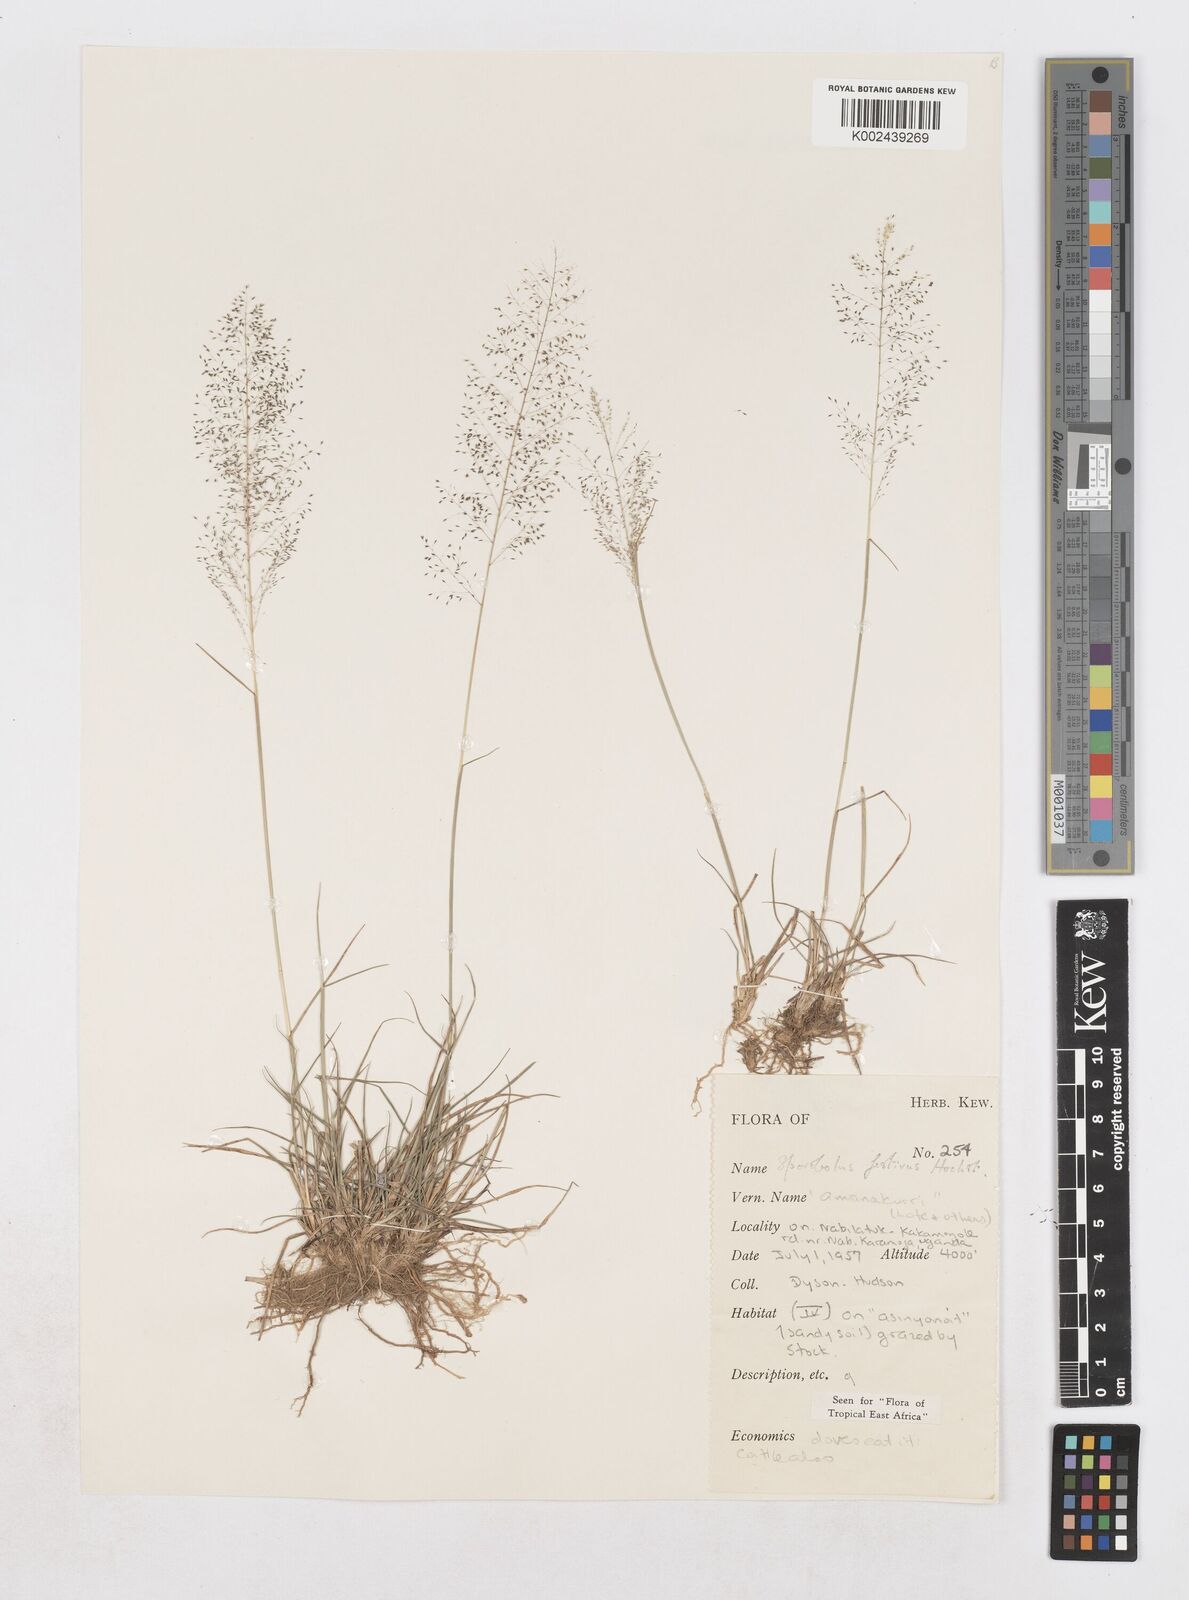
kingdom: Plantae
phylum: Tracheophyta
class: Liliopsida
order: Poales
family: Poaceae
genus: Sporobolus
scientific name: Sporobolus festivus
